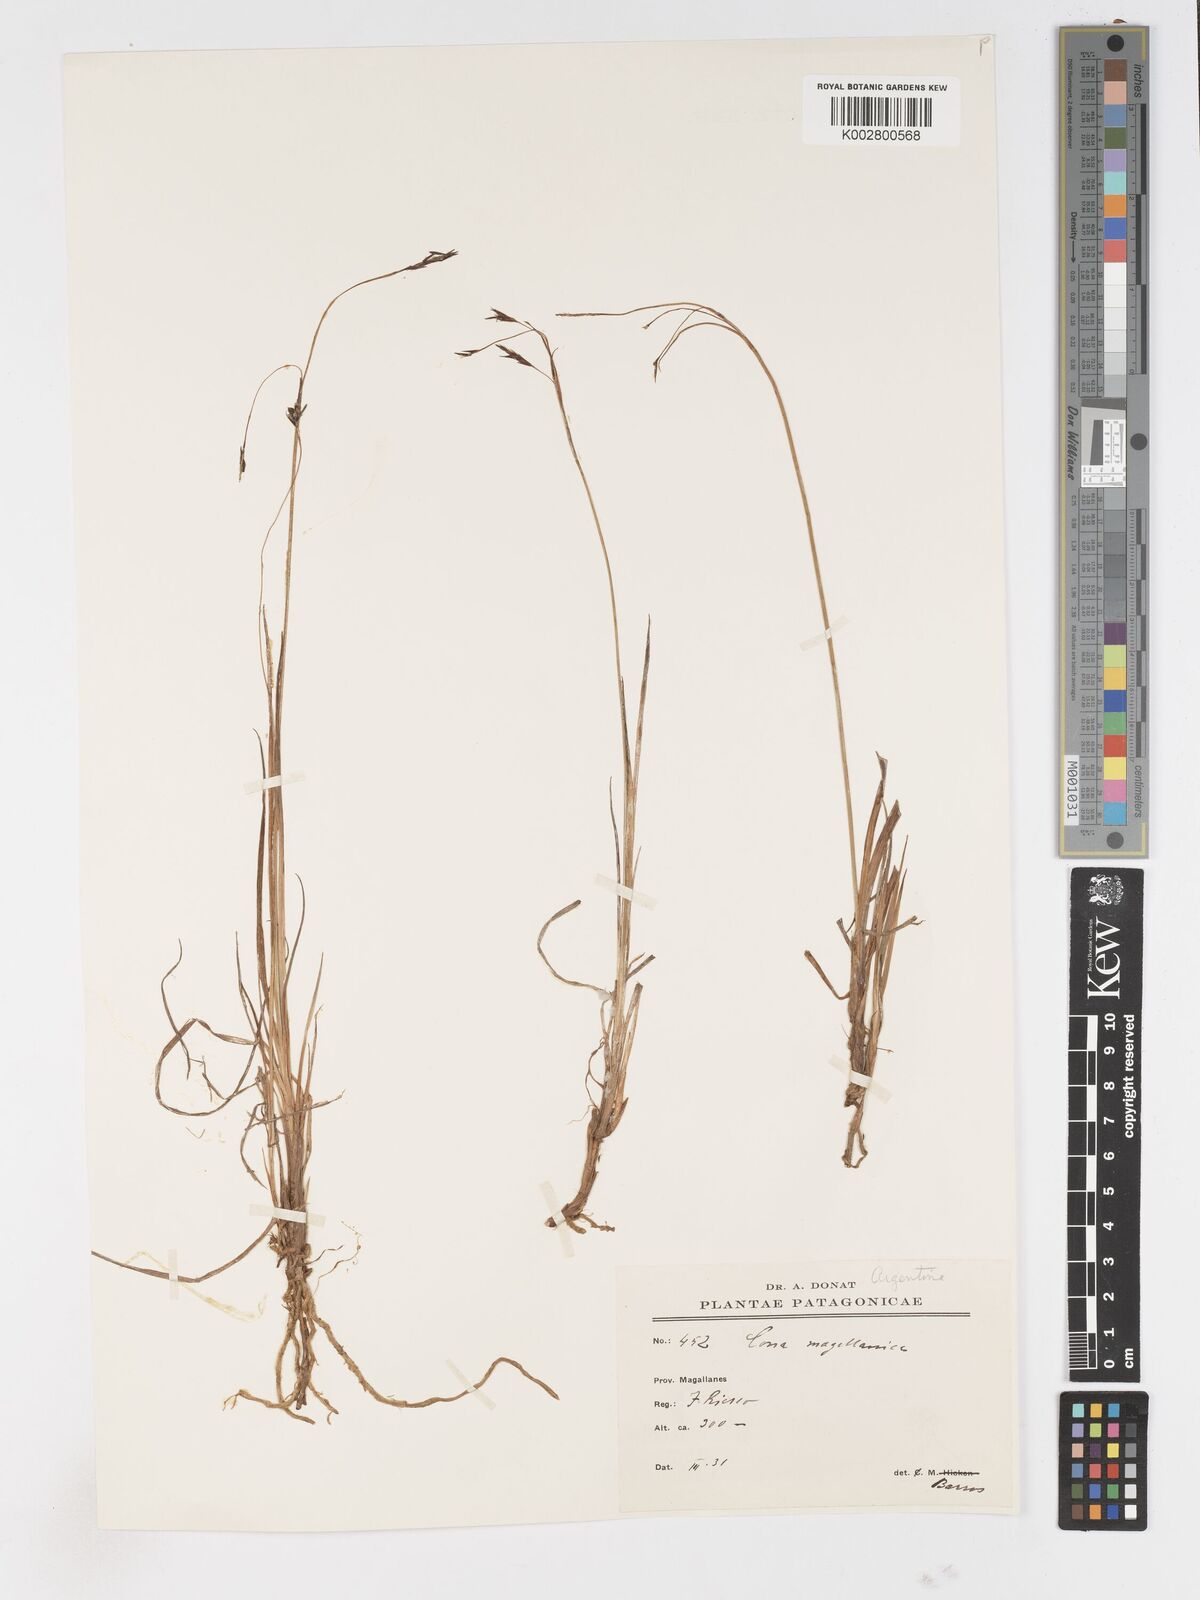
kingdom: Plantae
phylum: Tracheophyta
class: Liliopsida
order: Poales
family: Cyperaceae
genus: Carex
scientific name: Carex magellanica
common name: Bog sedge
